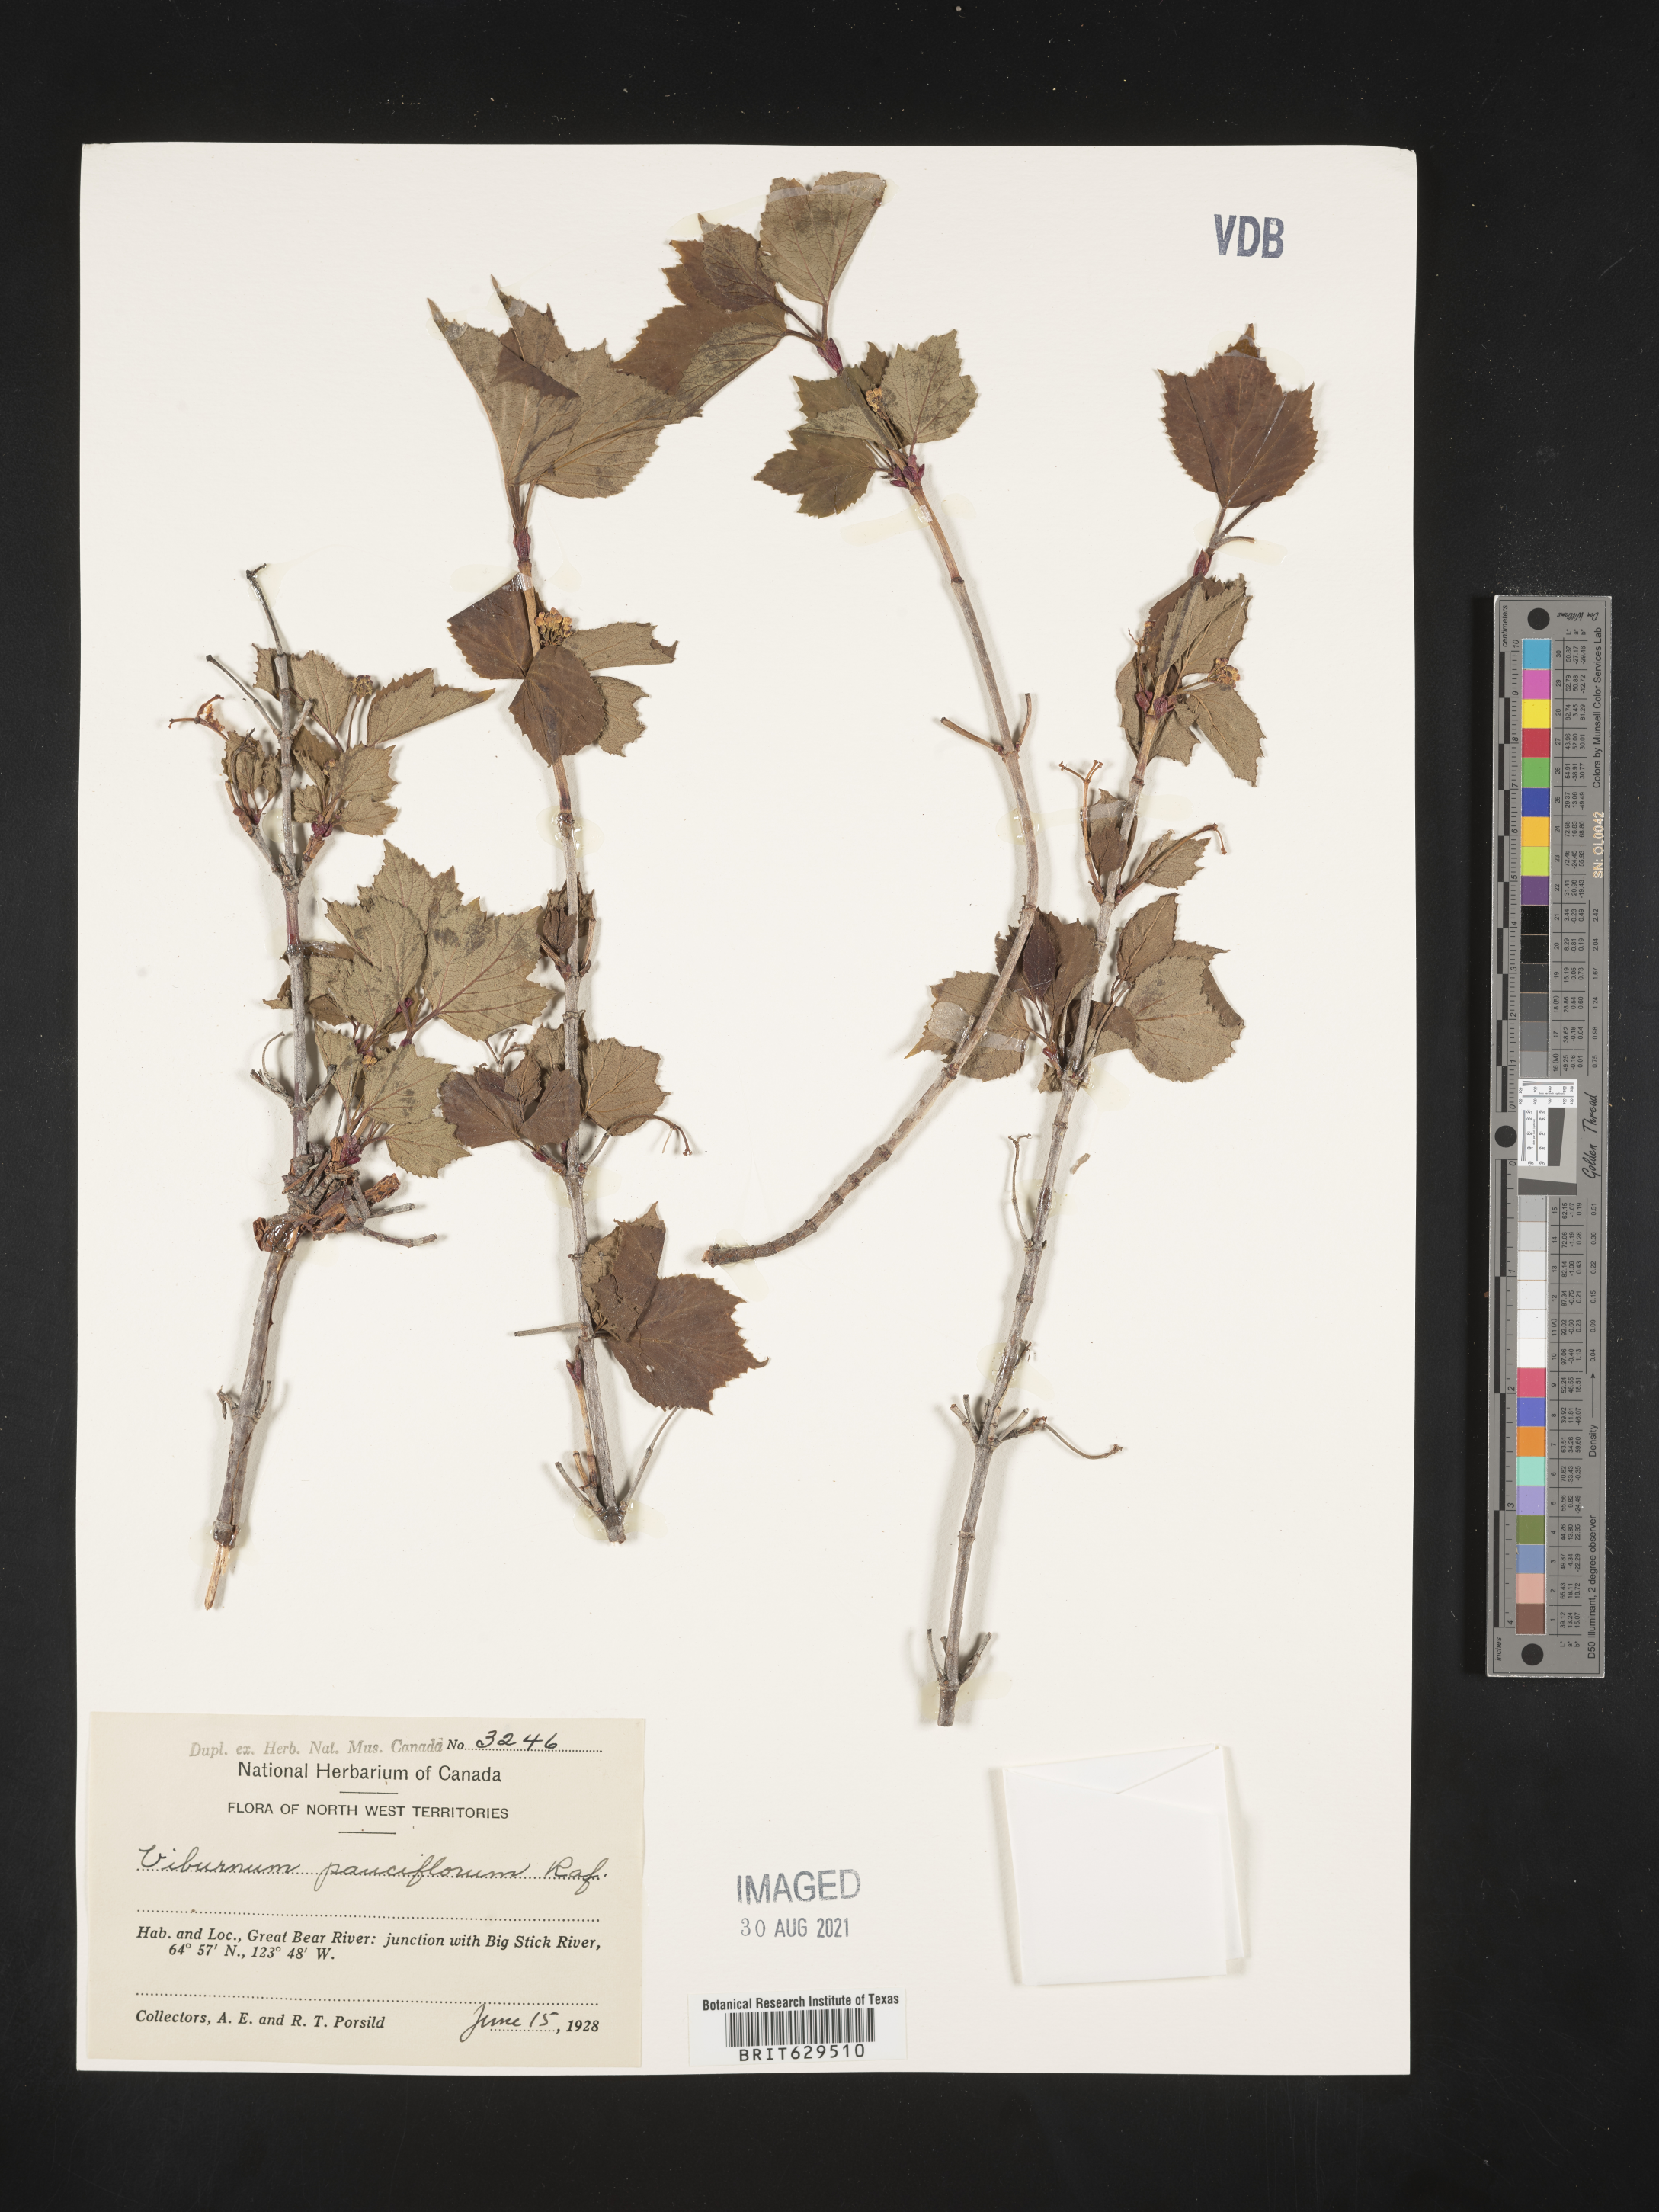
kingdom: Plantae
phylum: Tracheophyta
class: Magnoliopsida
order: Dipsacales
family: Viburnaceae
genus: Viburnum
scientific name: Viburnum edule
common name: Mooseberry
